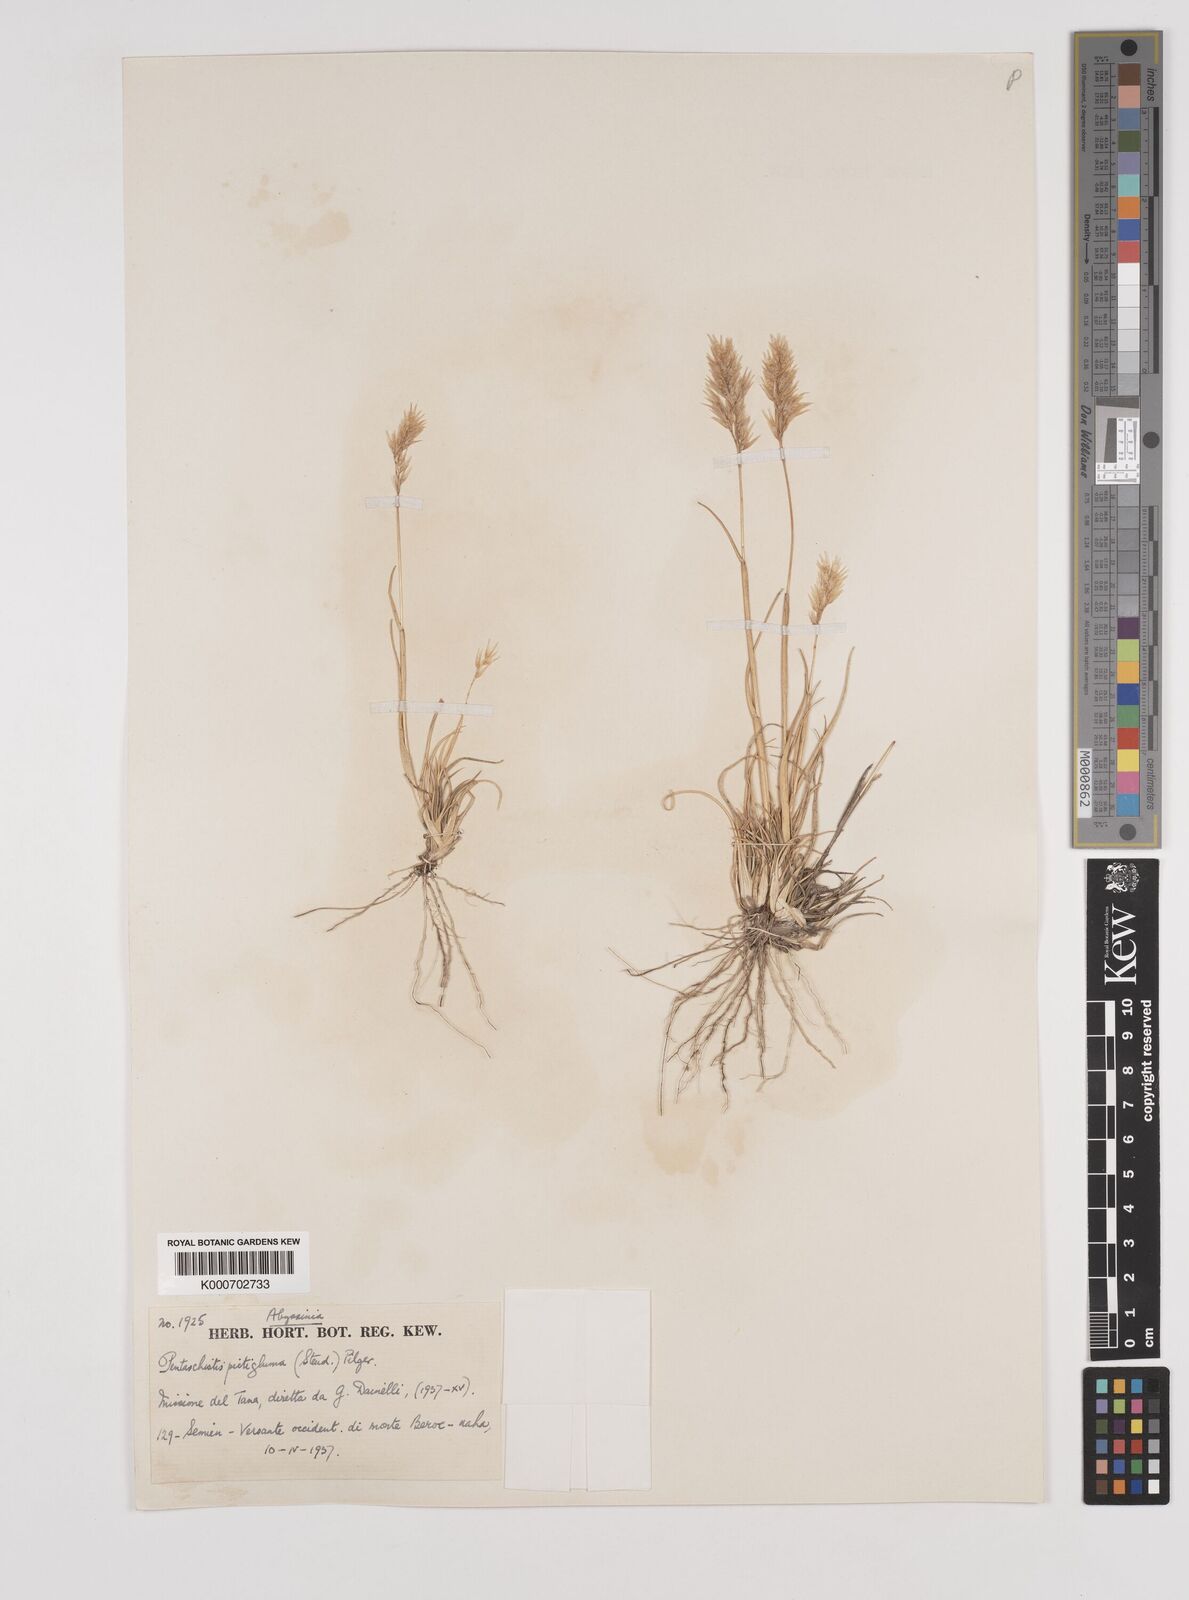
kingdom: Plantae
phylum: Tracheophyta
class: Liliopsida
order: Poales
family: Poaceae
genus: Pentameris
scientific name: Pentameris pictigluma
